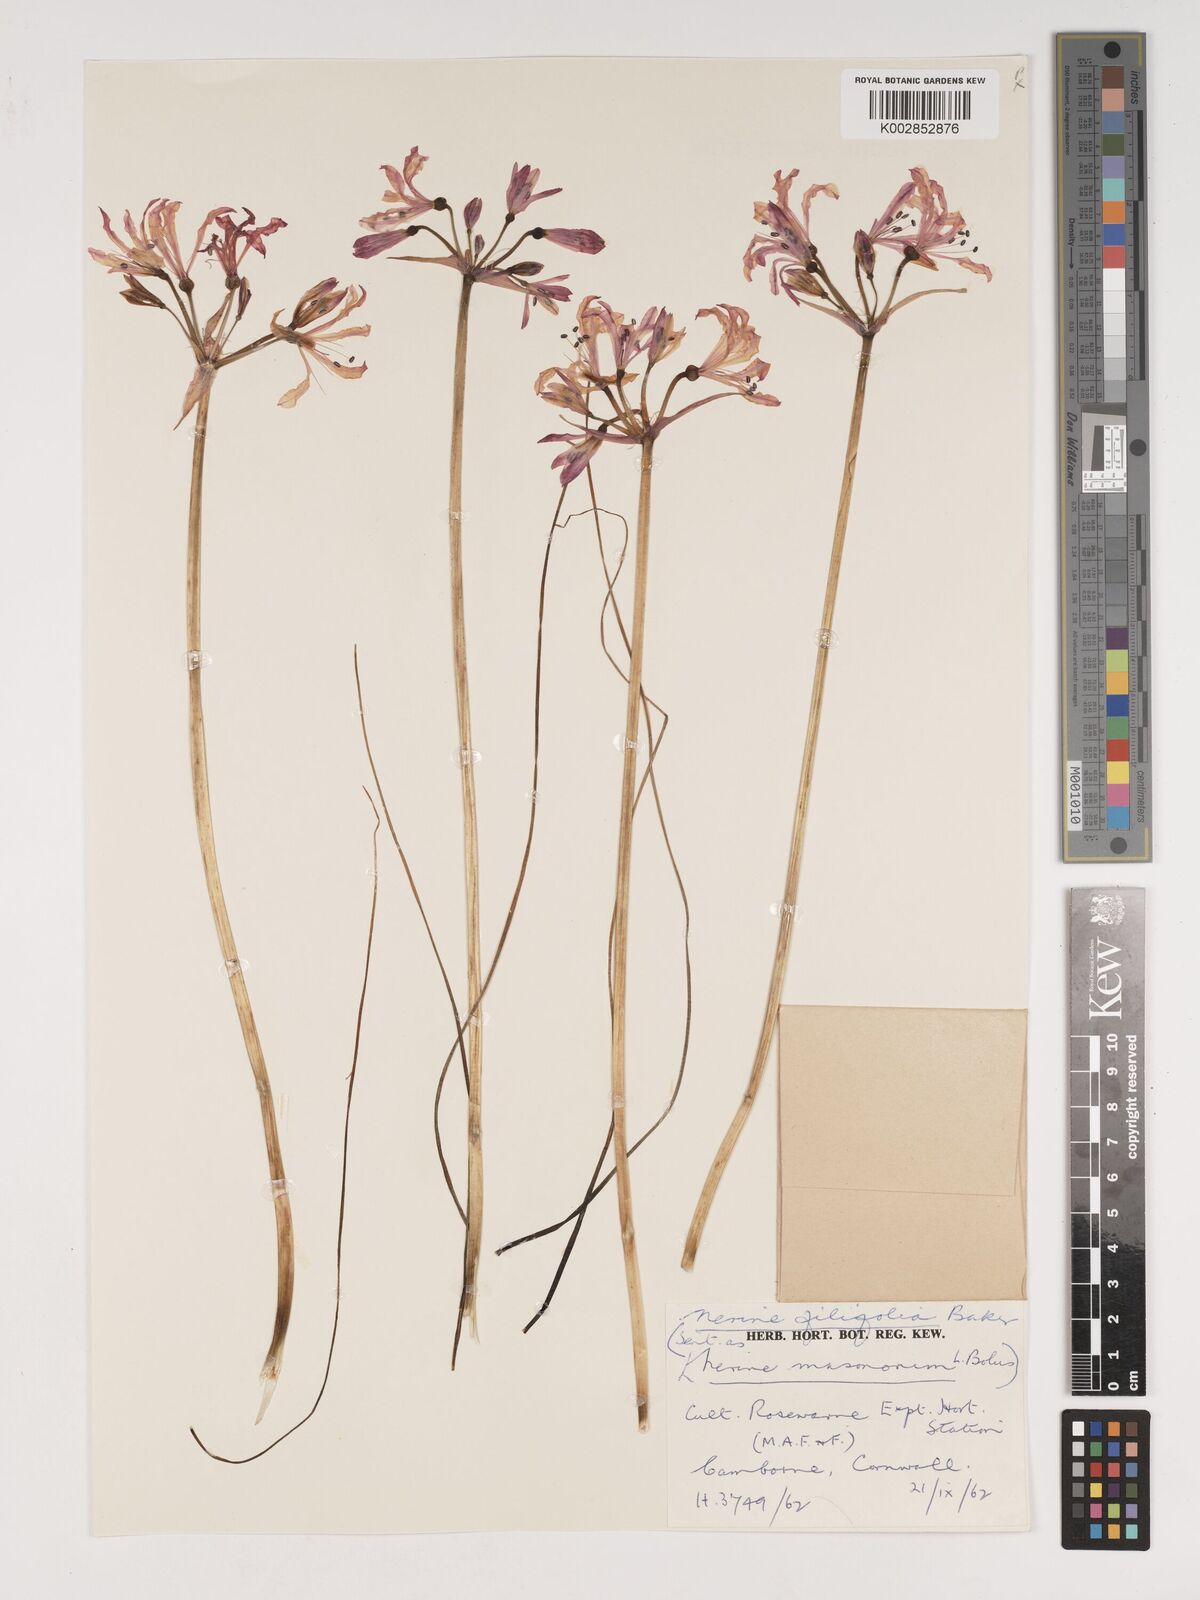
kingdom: Plantae
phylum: Tracheophyta
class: Liliopsida
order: Asparagales
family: Amaryllidaceae
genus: Nerine
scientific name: Nerine filifolia
